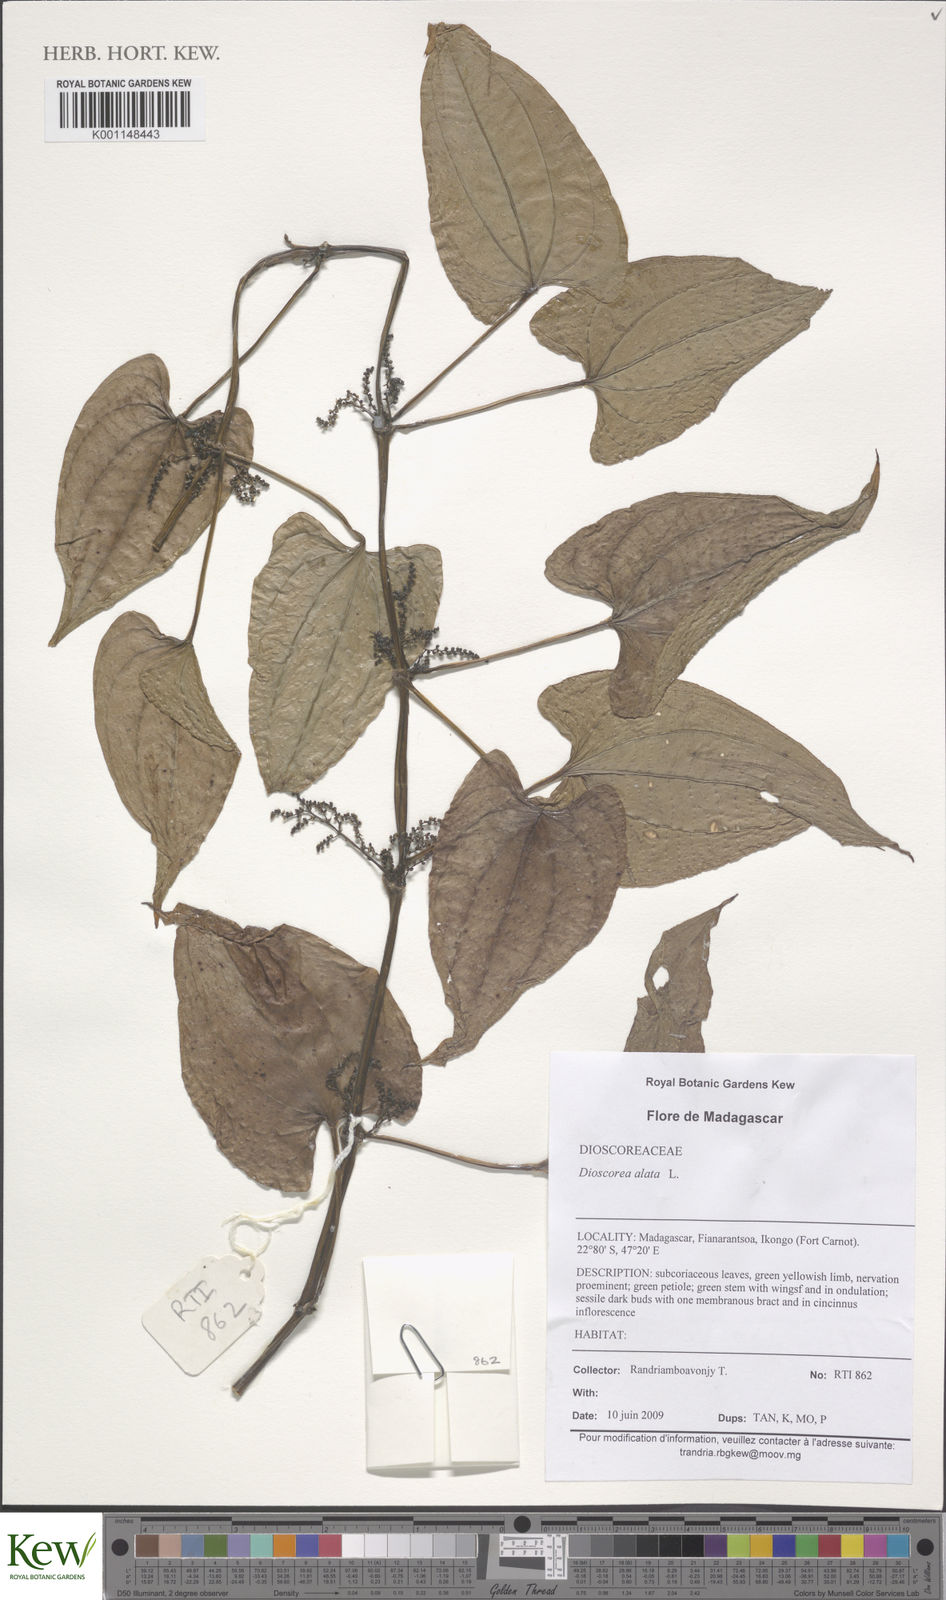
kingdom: Plantae
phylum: Tracheophyta
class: Liliopsida
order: Dioscoreales
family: Dioscoreaceae
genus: Dioscorea
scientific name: Dioscorea alata
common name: Water yam
